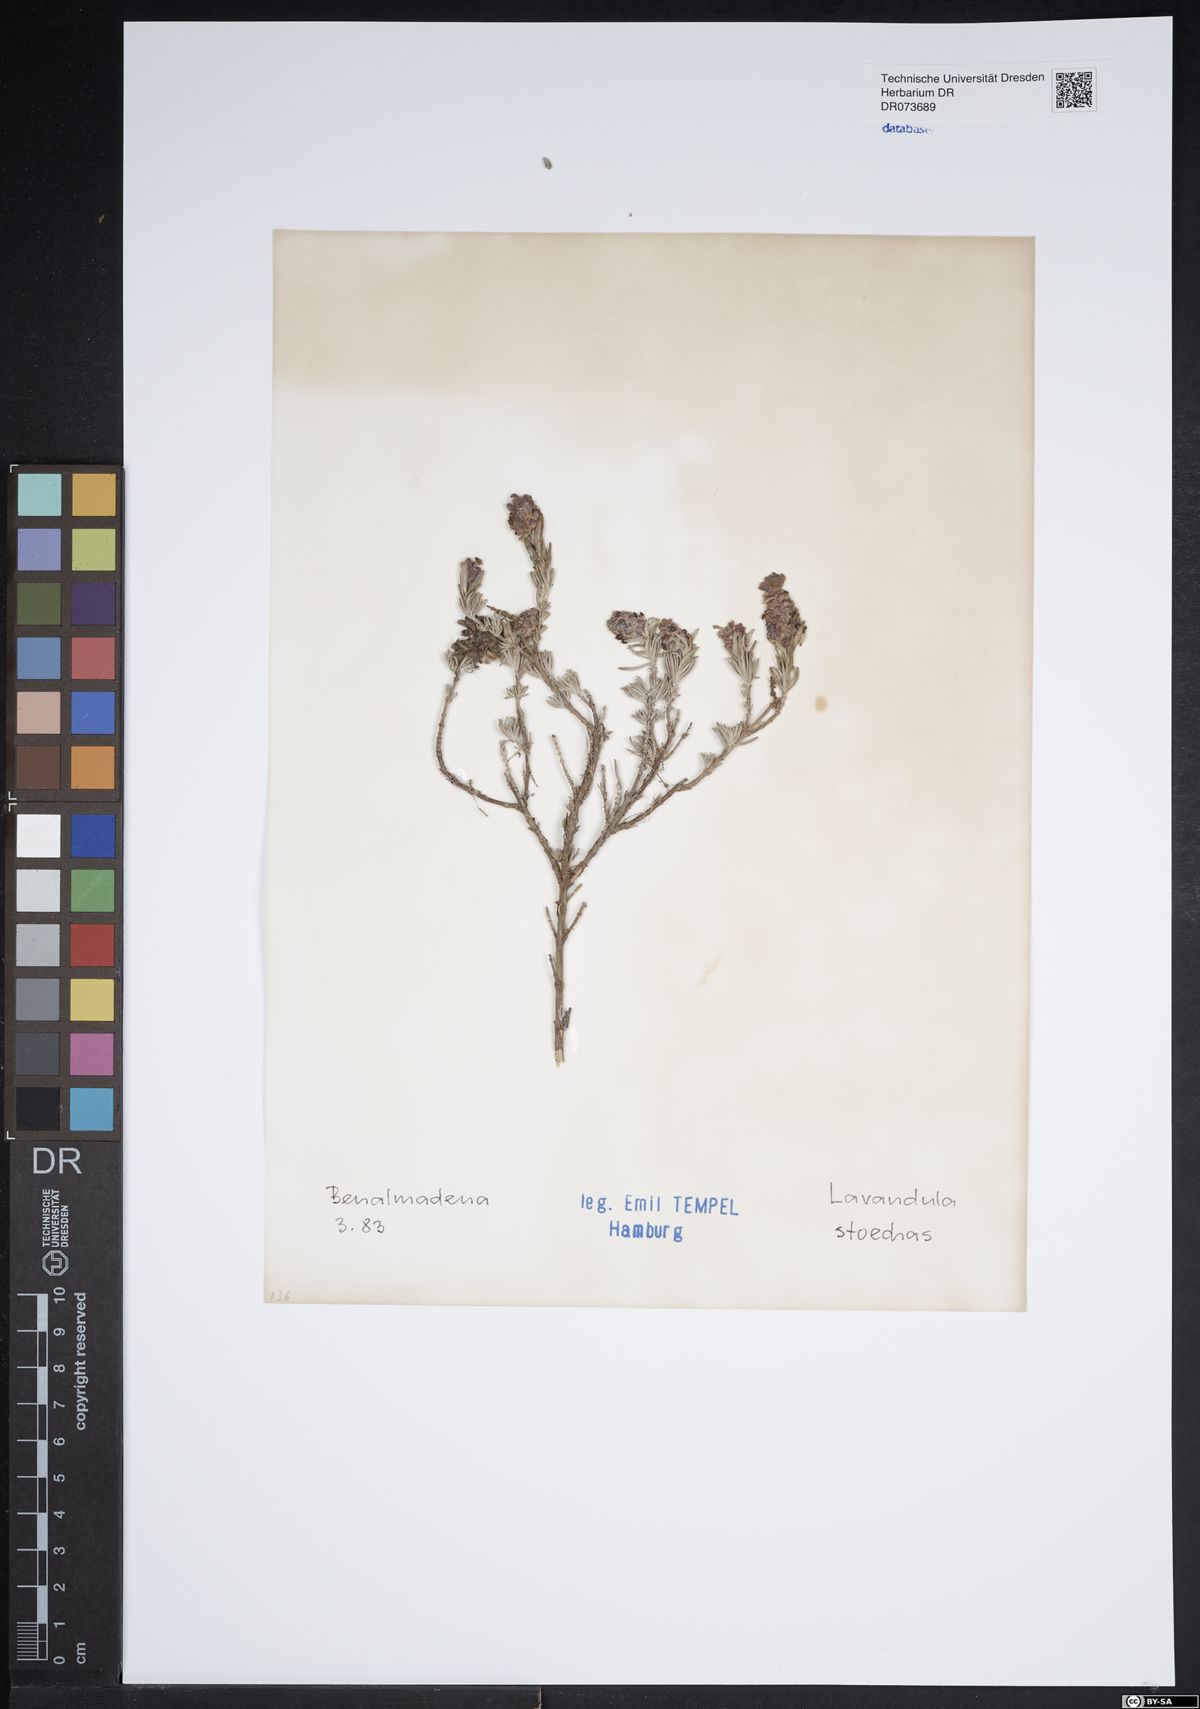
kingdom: Plantae
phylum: Tracheophyta
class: Magnoliopsida
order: Lamiales
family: Lamiaceae
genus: Lavandula
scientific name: Lavandula stoechas
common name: French lavender
